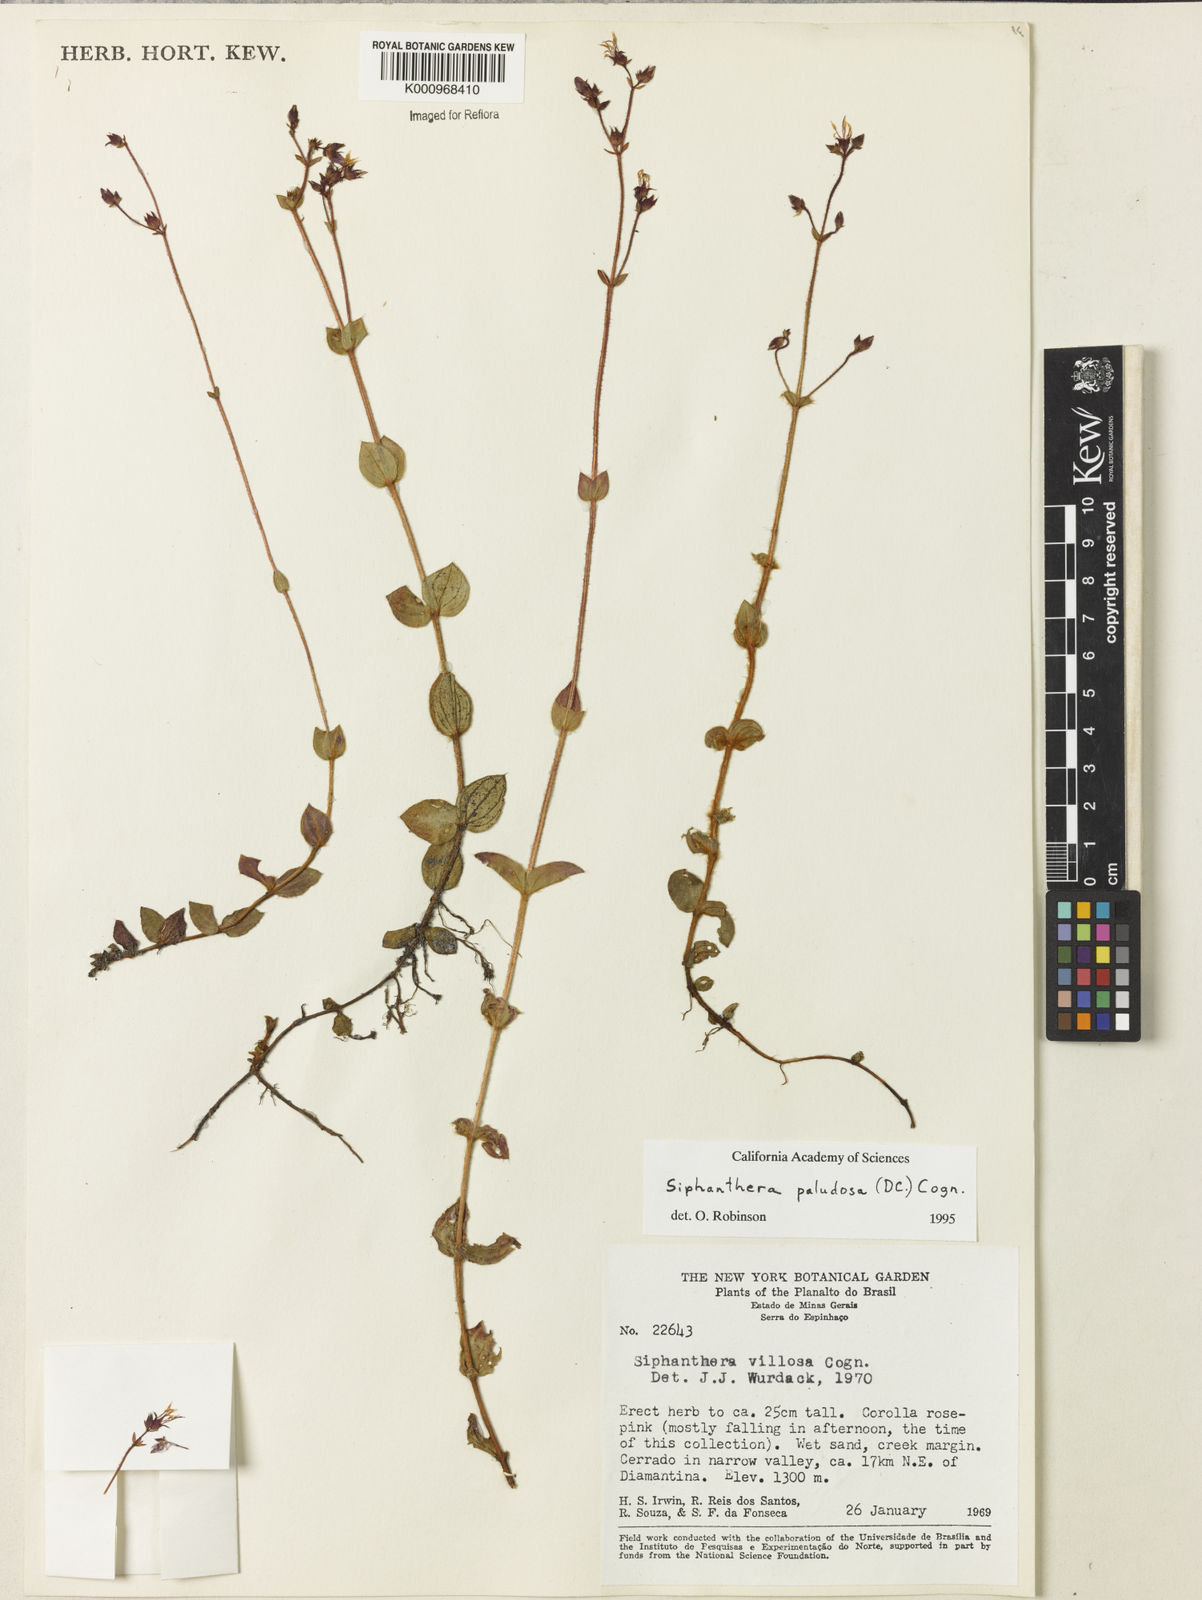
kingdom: Plantae
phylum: Tracheophyta
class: Magnoliopsida
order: Myrtales
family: Melastomataceae
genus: Siphanthera
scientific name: Siphanthera paludosa
